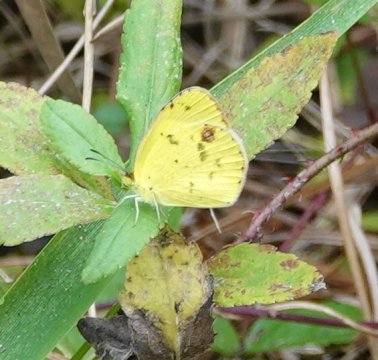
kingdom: Animalia
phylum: Arthropoda
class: Insecta
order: Lepidoptera
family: Pieridae
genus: Pyrisitia
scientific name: Pyrisitia lisa
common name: Little Yellow
